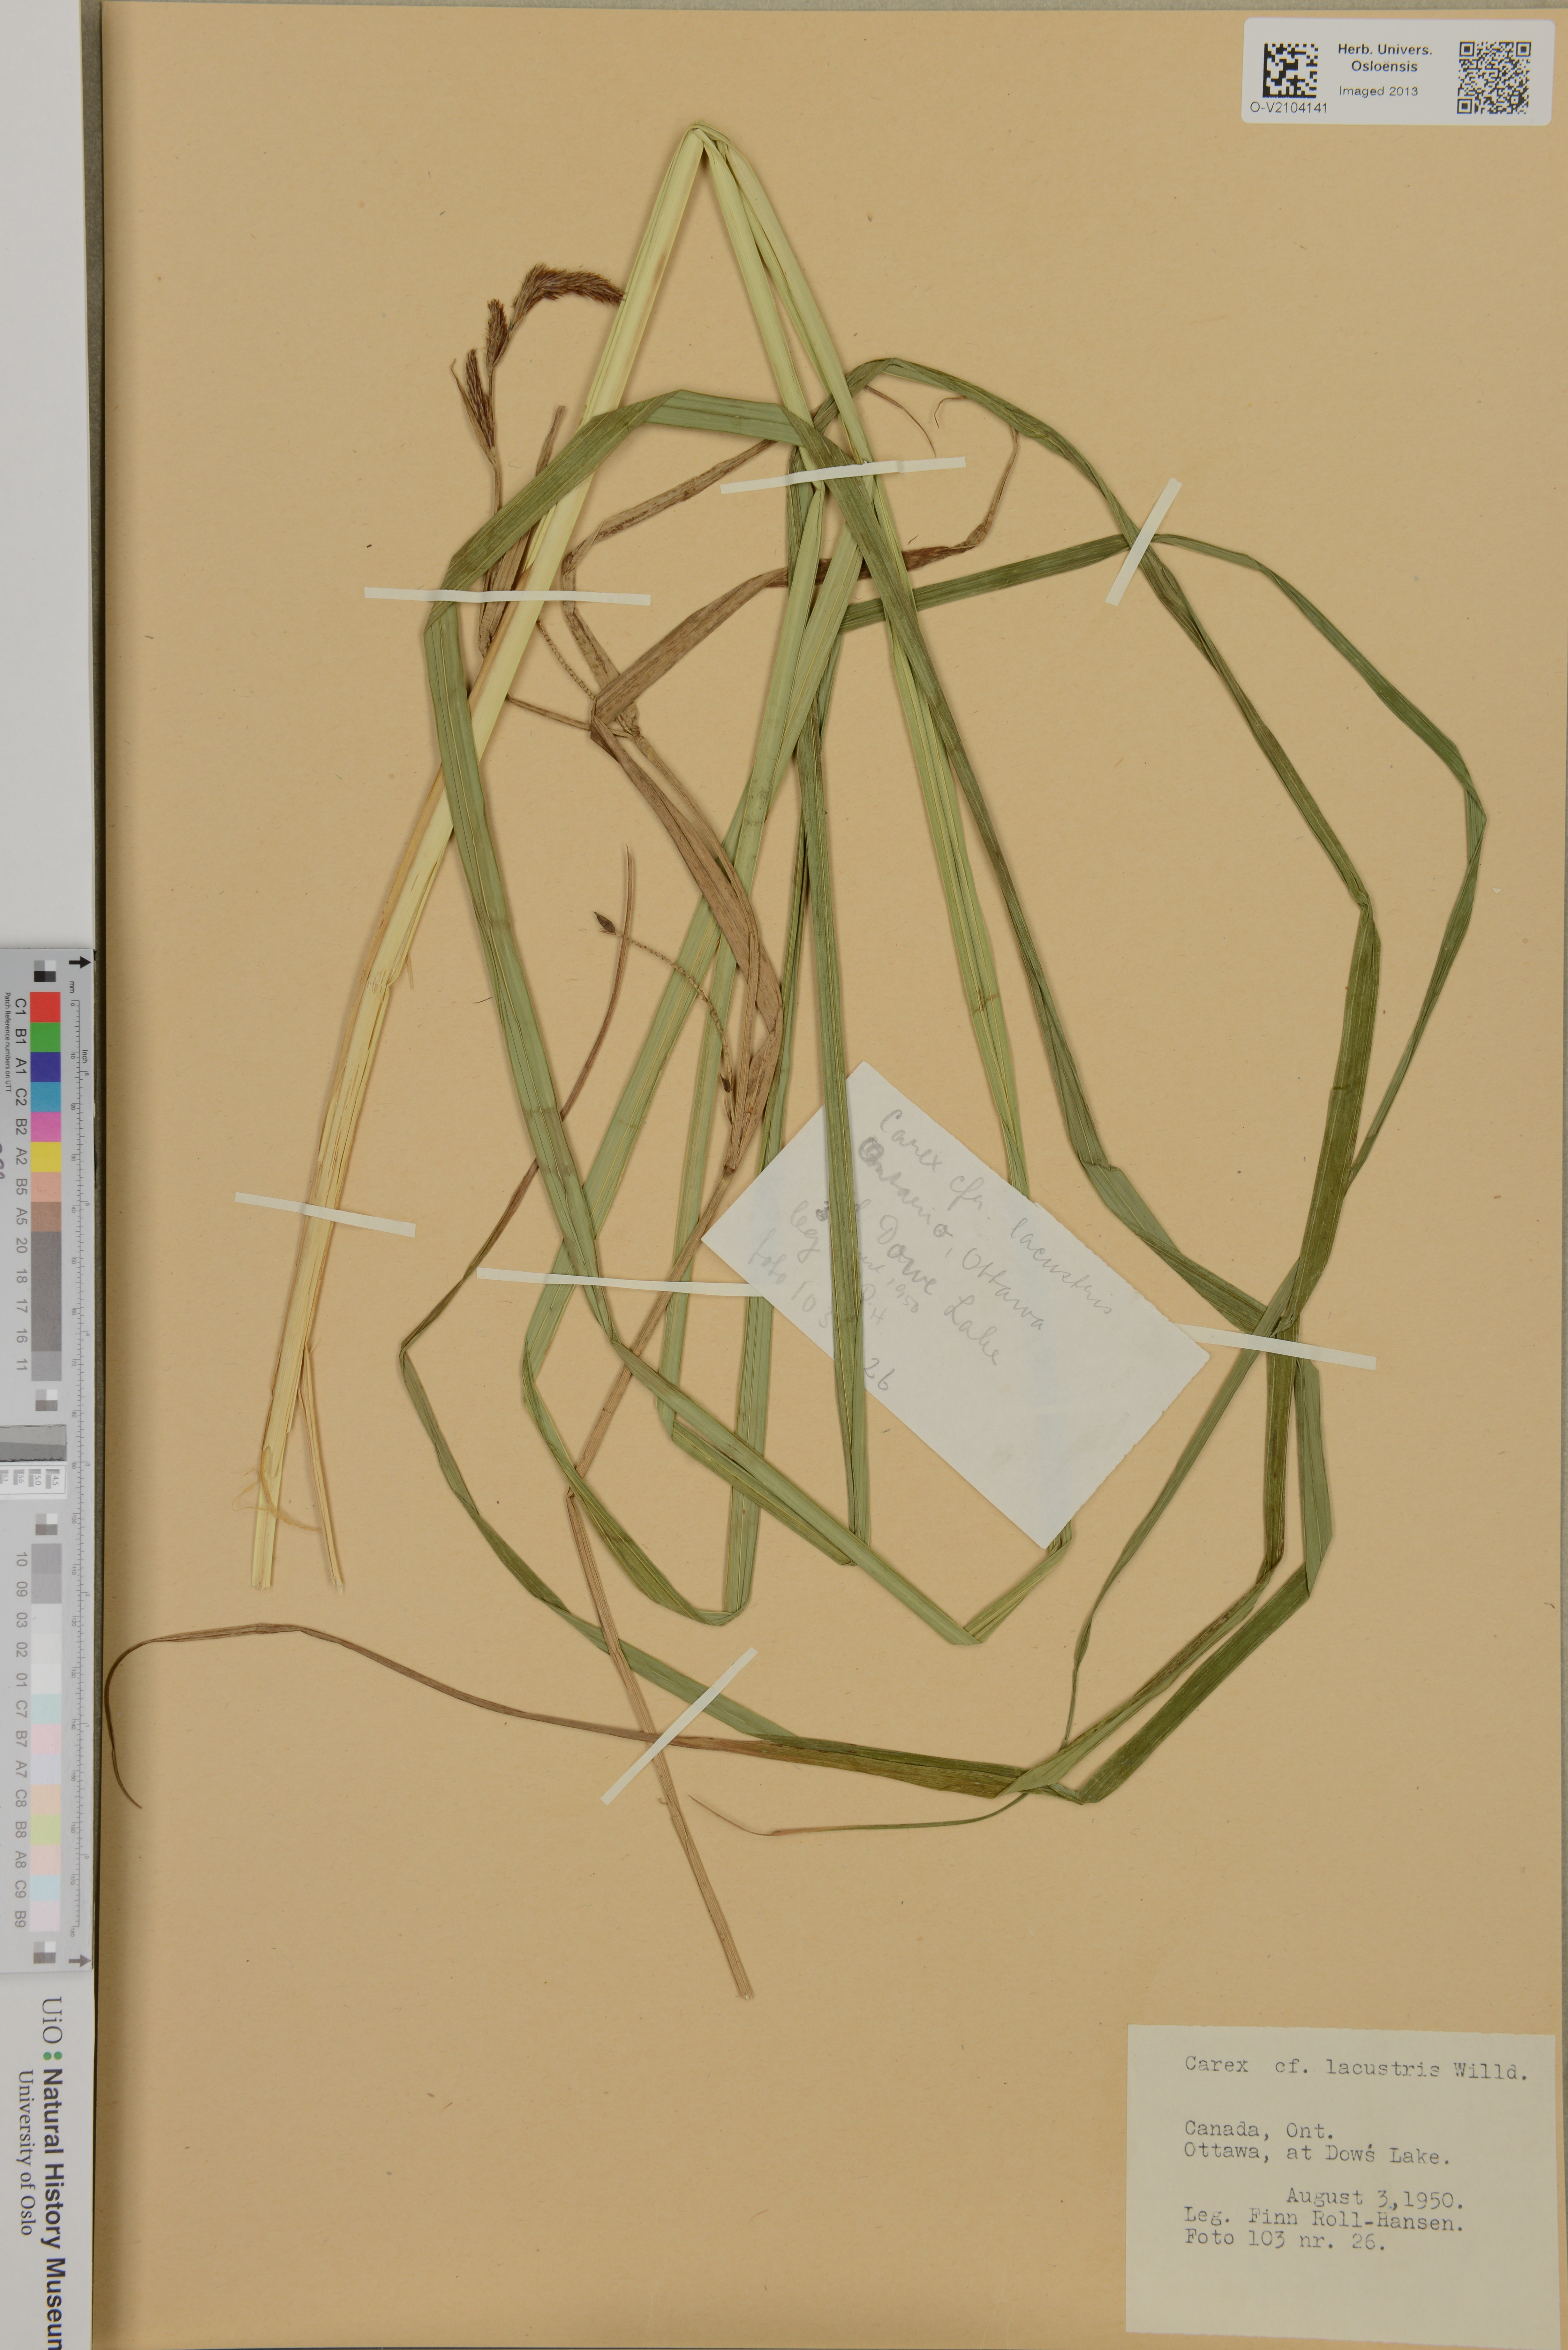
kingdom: Plantae
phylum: Tracheophyta
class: Liliopsida
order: Poales
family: Cyperaceae
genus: Carex
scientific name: Carex lacustris
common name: Common lake sedge
